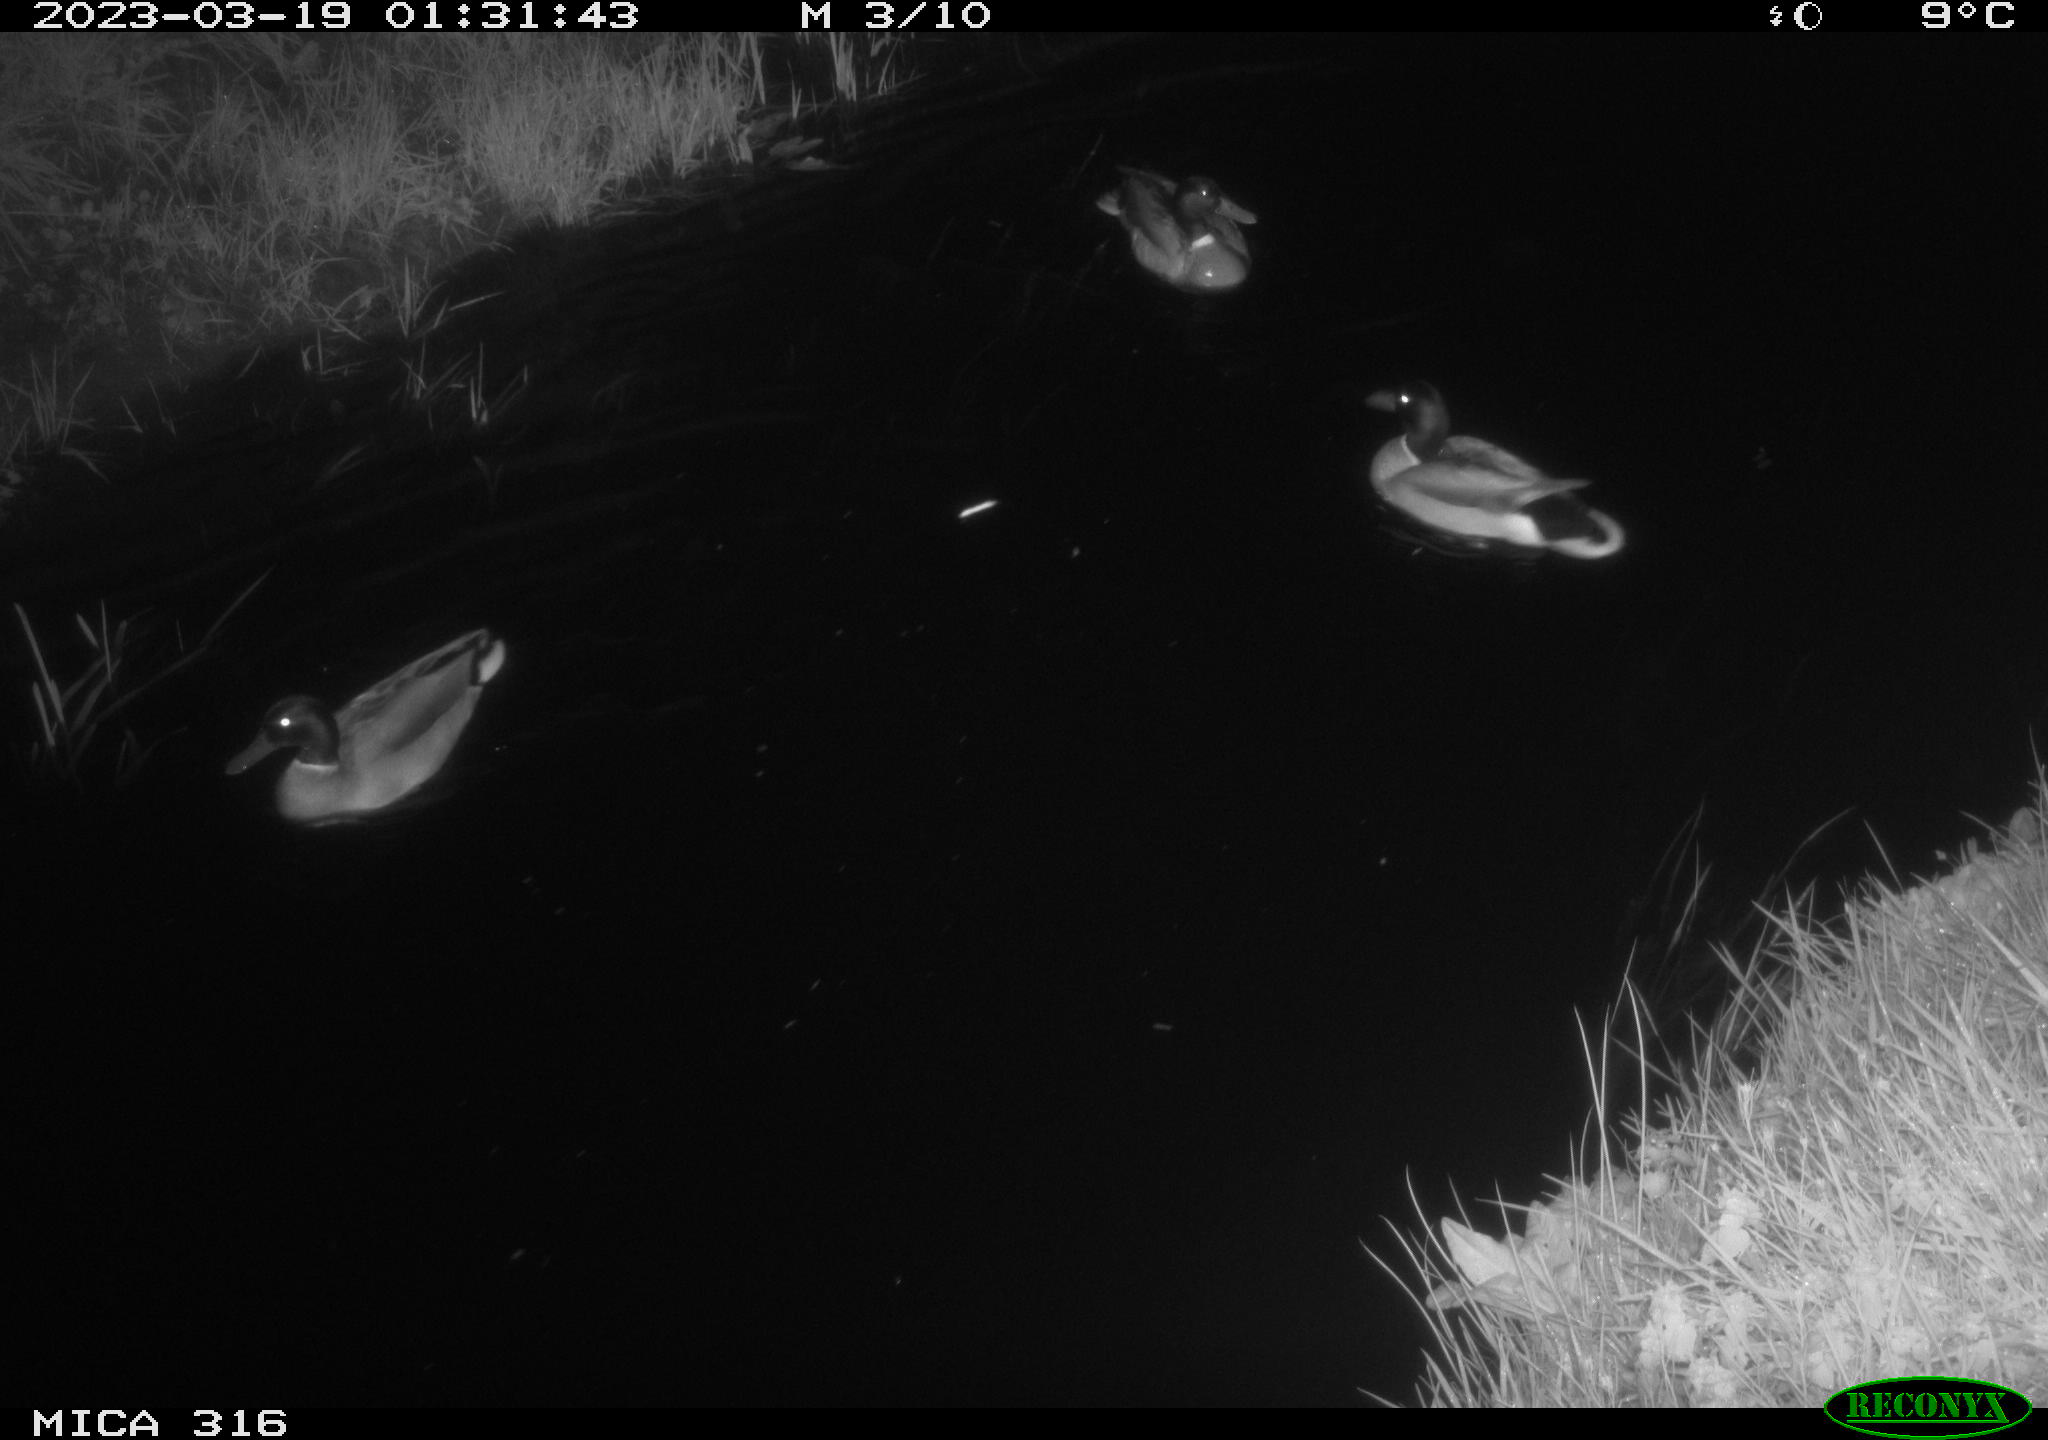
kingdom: Animalia
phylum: Chordata
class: Aves
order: Anseriformes
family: Anatidae
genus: Anas
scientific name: Anas
